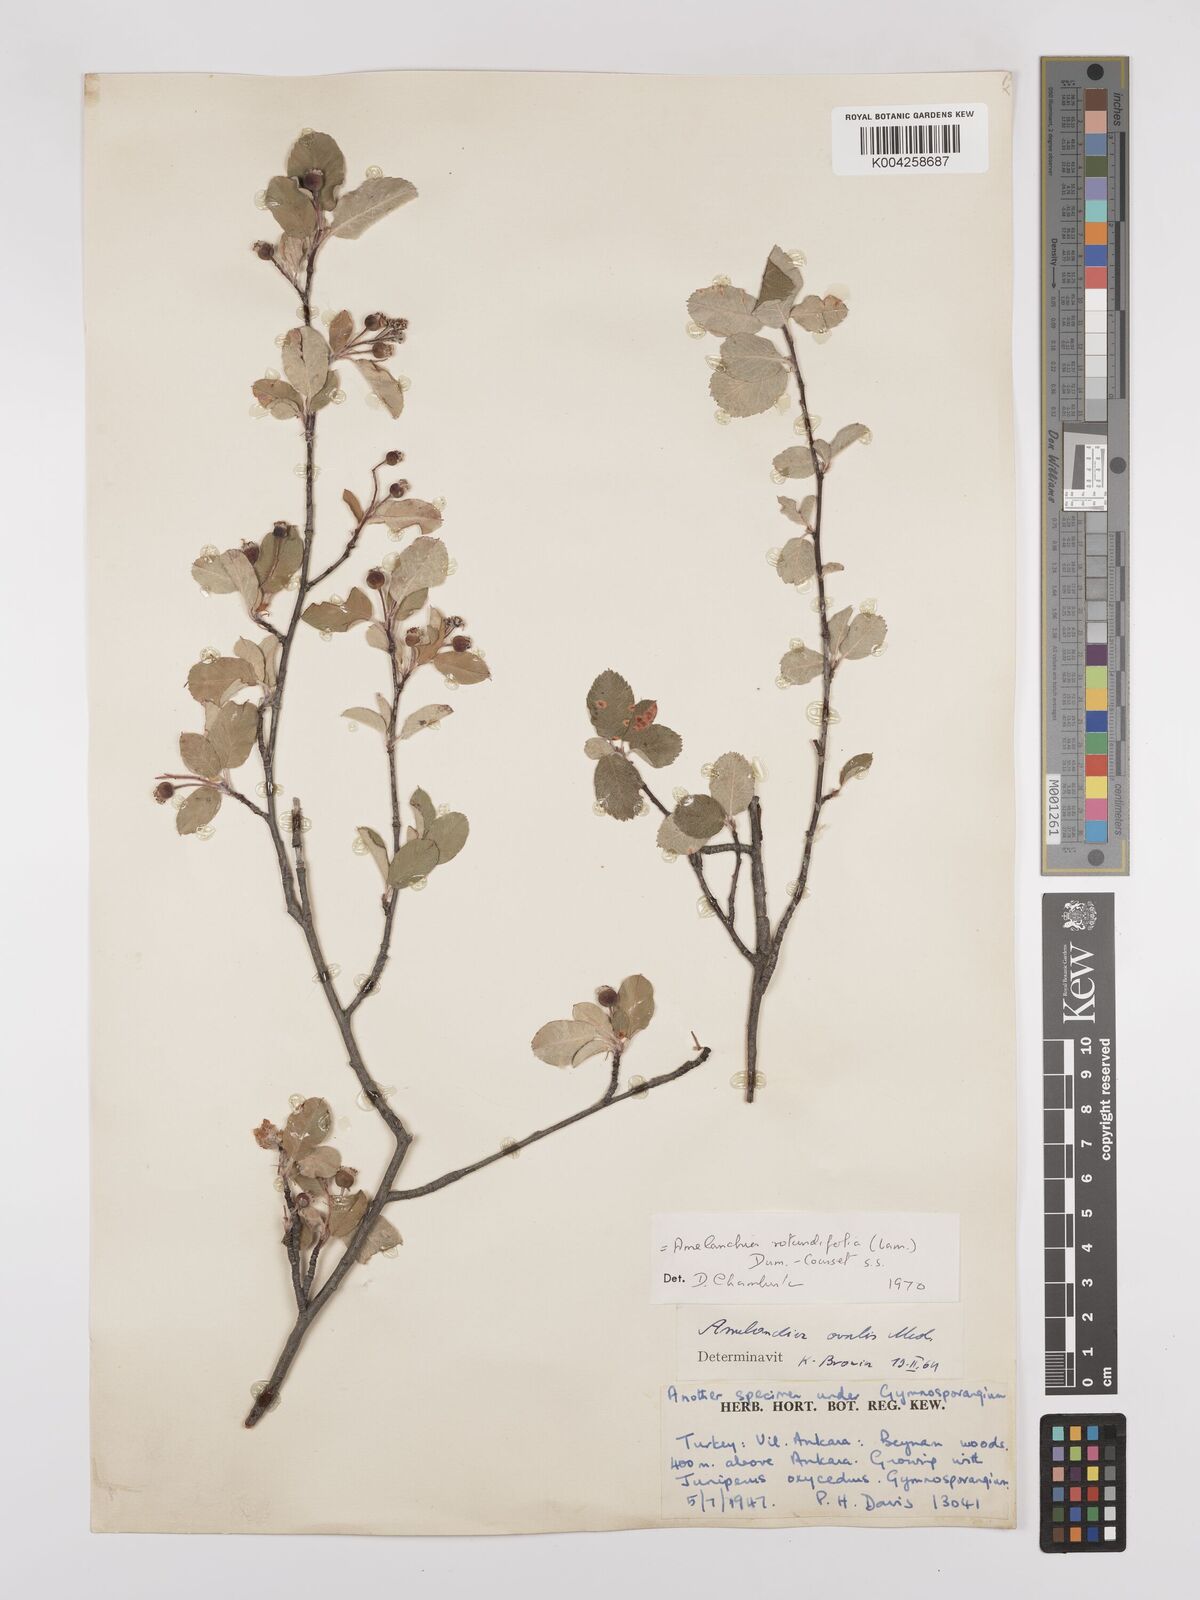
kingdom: Plantae
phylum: Tracheophyta
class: Magnoliopsida
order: Rosales
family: Rosaceae
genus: Amelanchier
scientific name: Amelanchier ovalis
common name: Serviceberry
